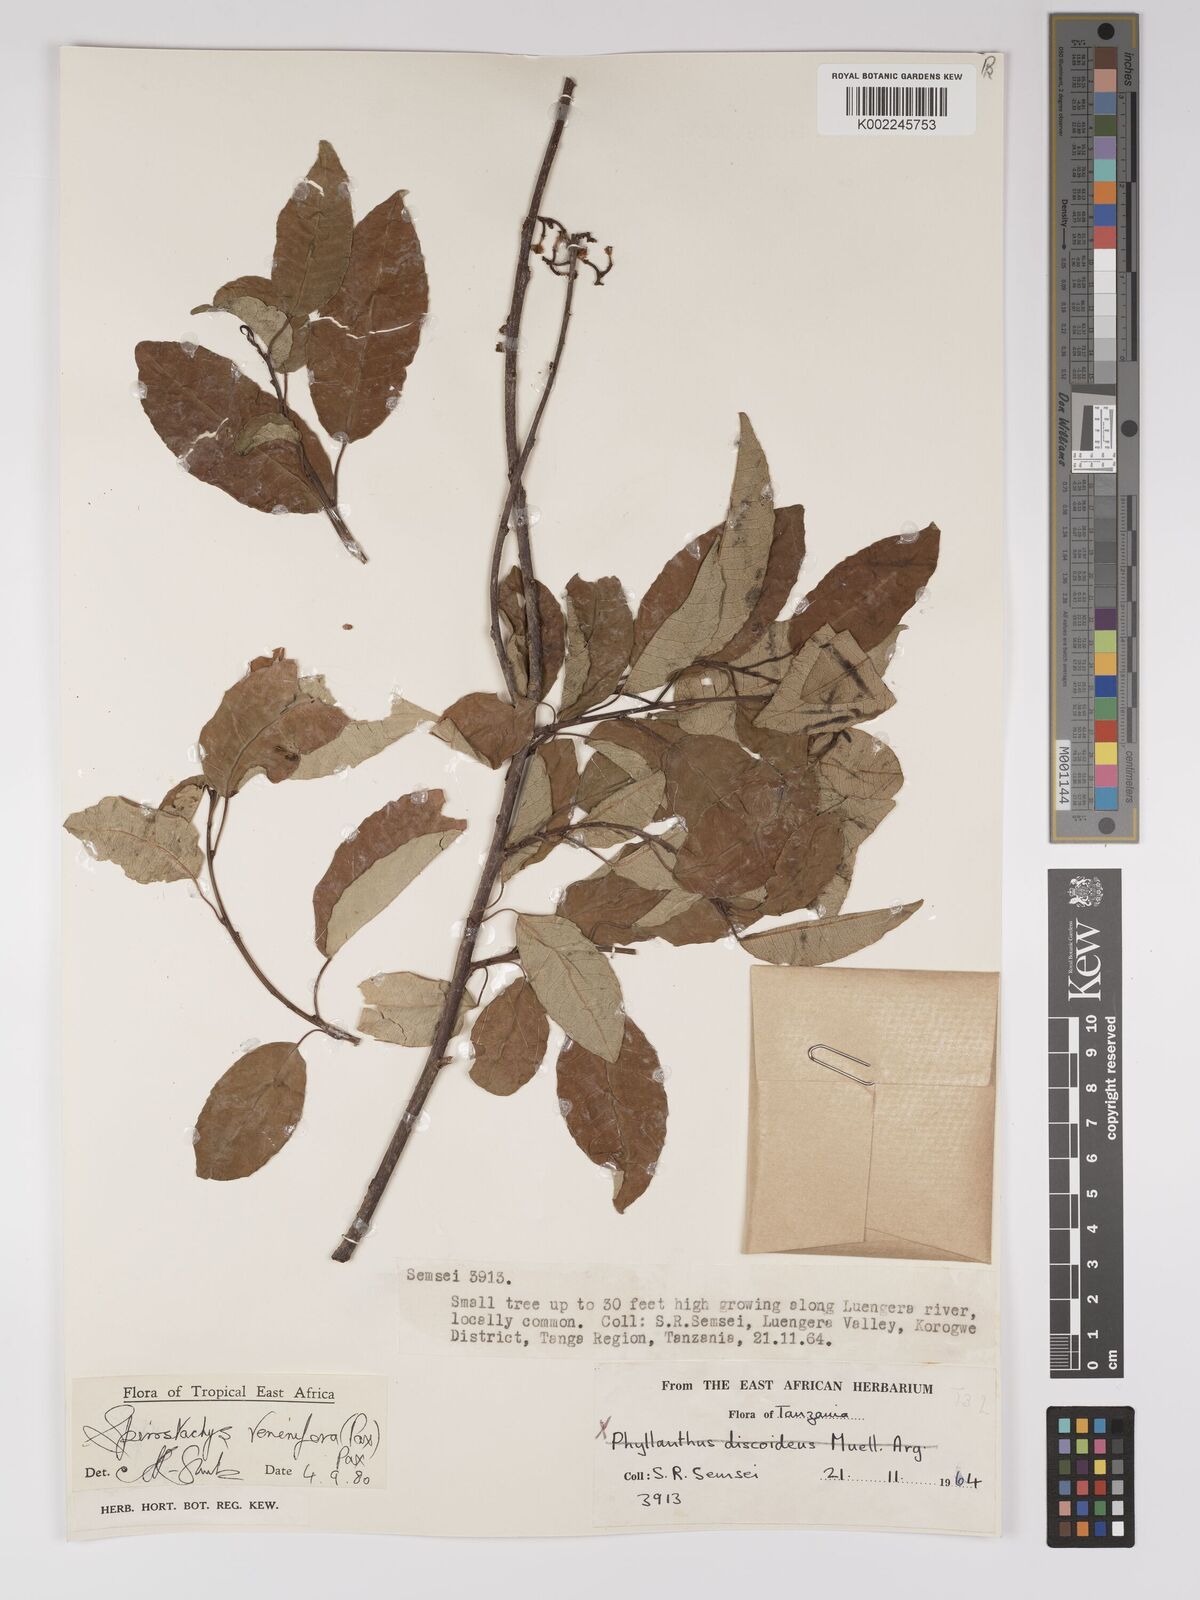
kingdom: Plantae
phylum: Tracheophyta
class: Magnoliopsida
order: Malpighiales
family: Euphorbiaceae
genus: Spirostachys
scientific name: Spirostachys venenifera
